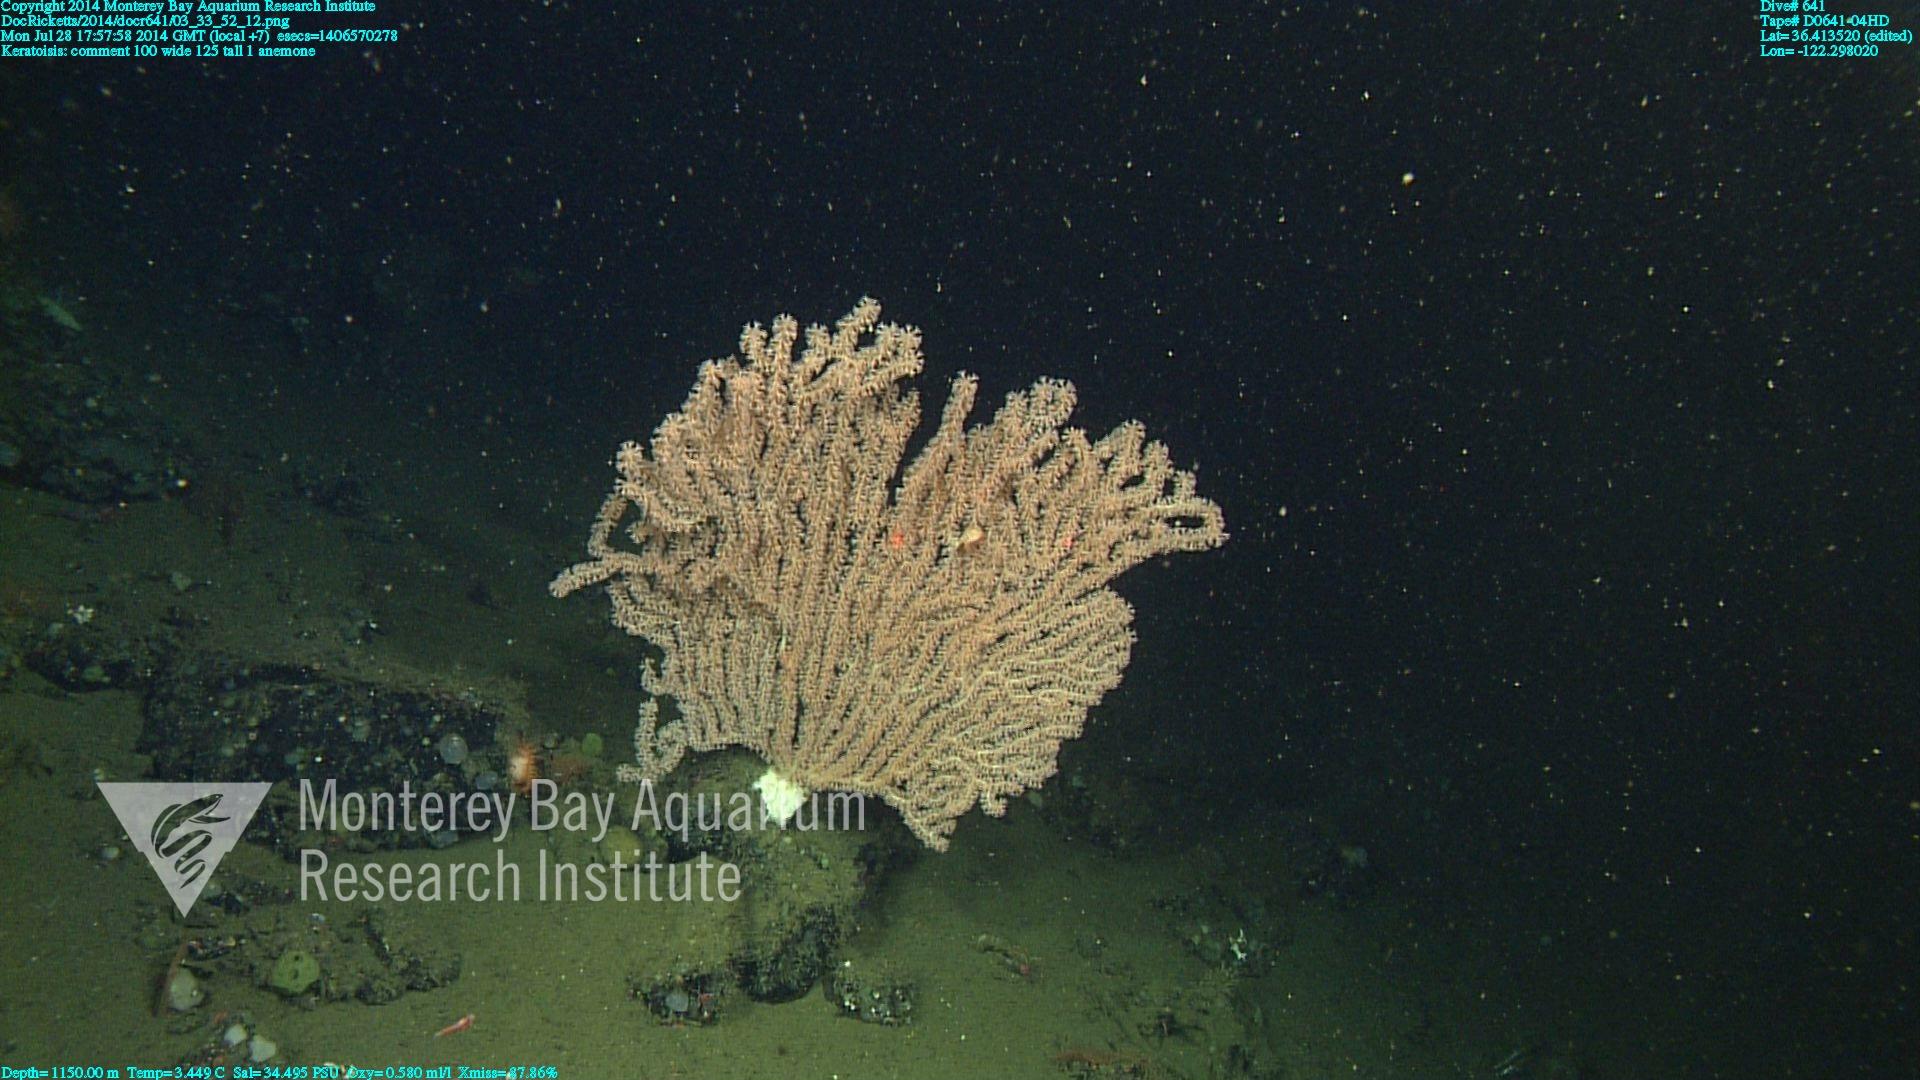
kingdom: Animalia
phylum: Cnidaria
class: Anthozoa
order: Scleralcyonacea
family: Keratoisididae
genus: Keratoisis
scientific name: Keratoisis
